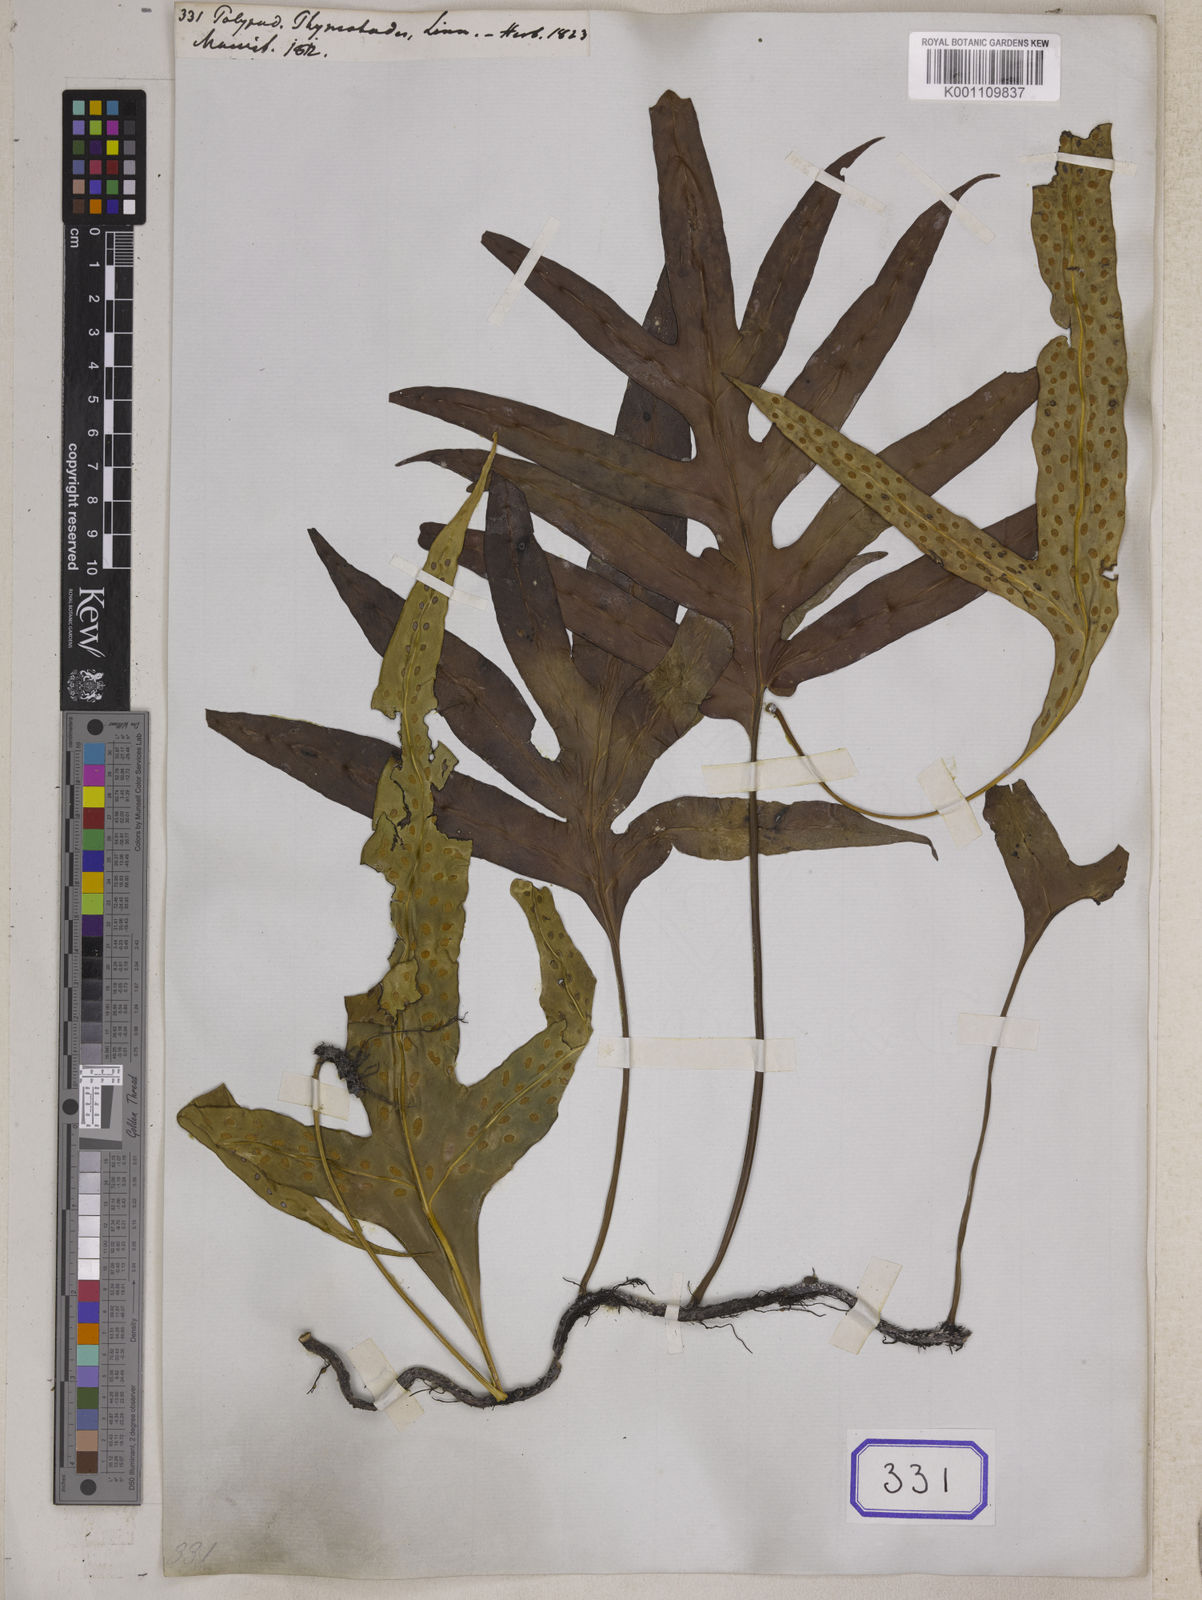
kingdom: Plantae
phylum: Tracheophyta
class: Polypodiopsida
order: Polypodiales
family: Polypodiaceae
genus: Microsorum
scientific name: Microsorum scolopendria
